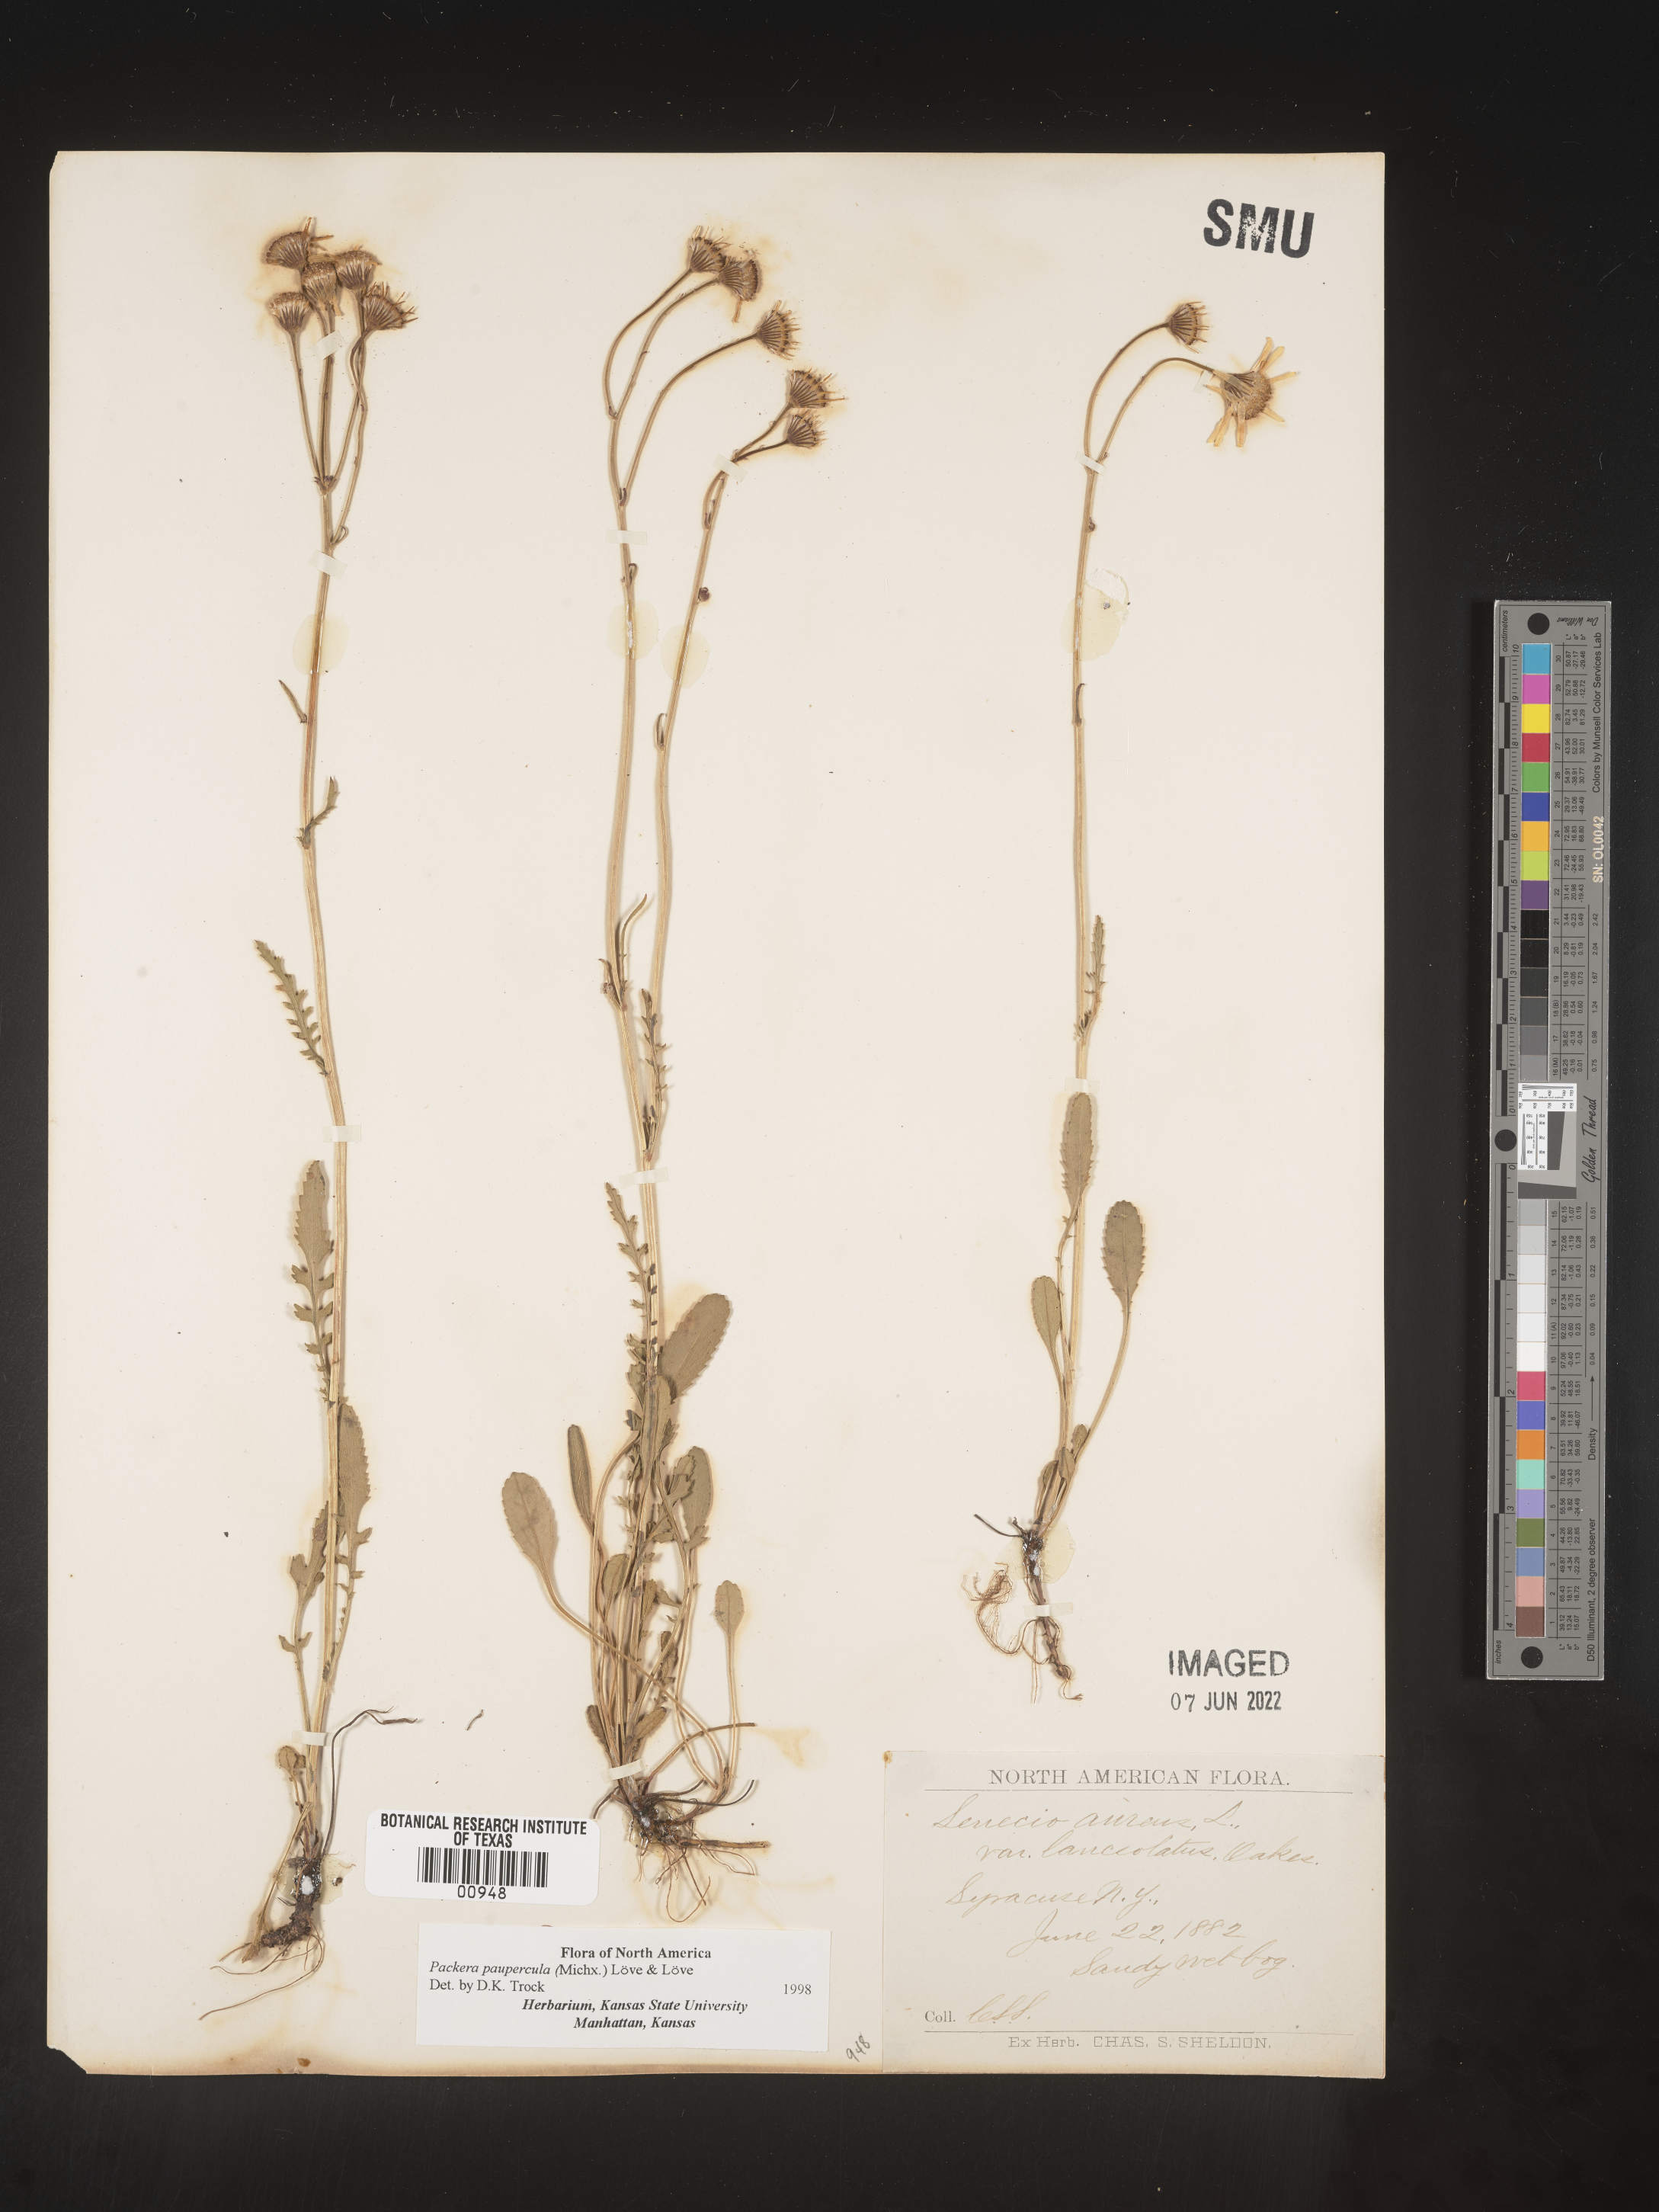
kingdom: Plantae
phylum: Tracheophyta
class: Magnoliopsida
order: Asterales
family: Asteraceae
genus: Packera
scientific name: Packera paupercula
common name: Balsam groundsel
